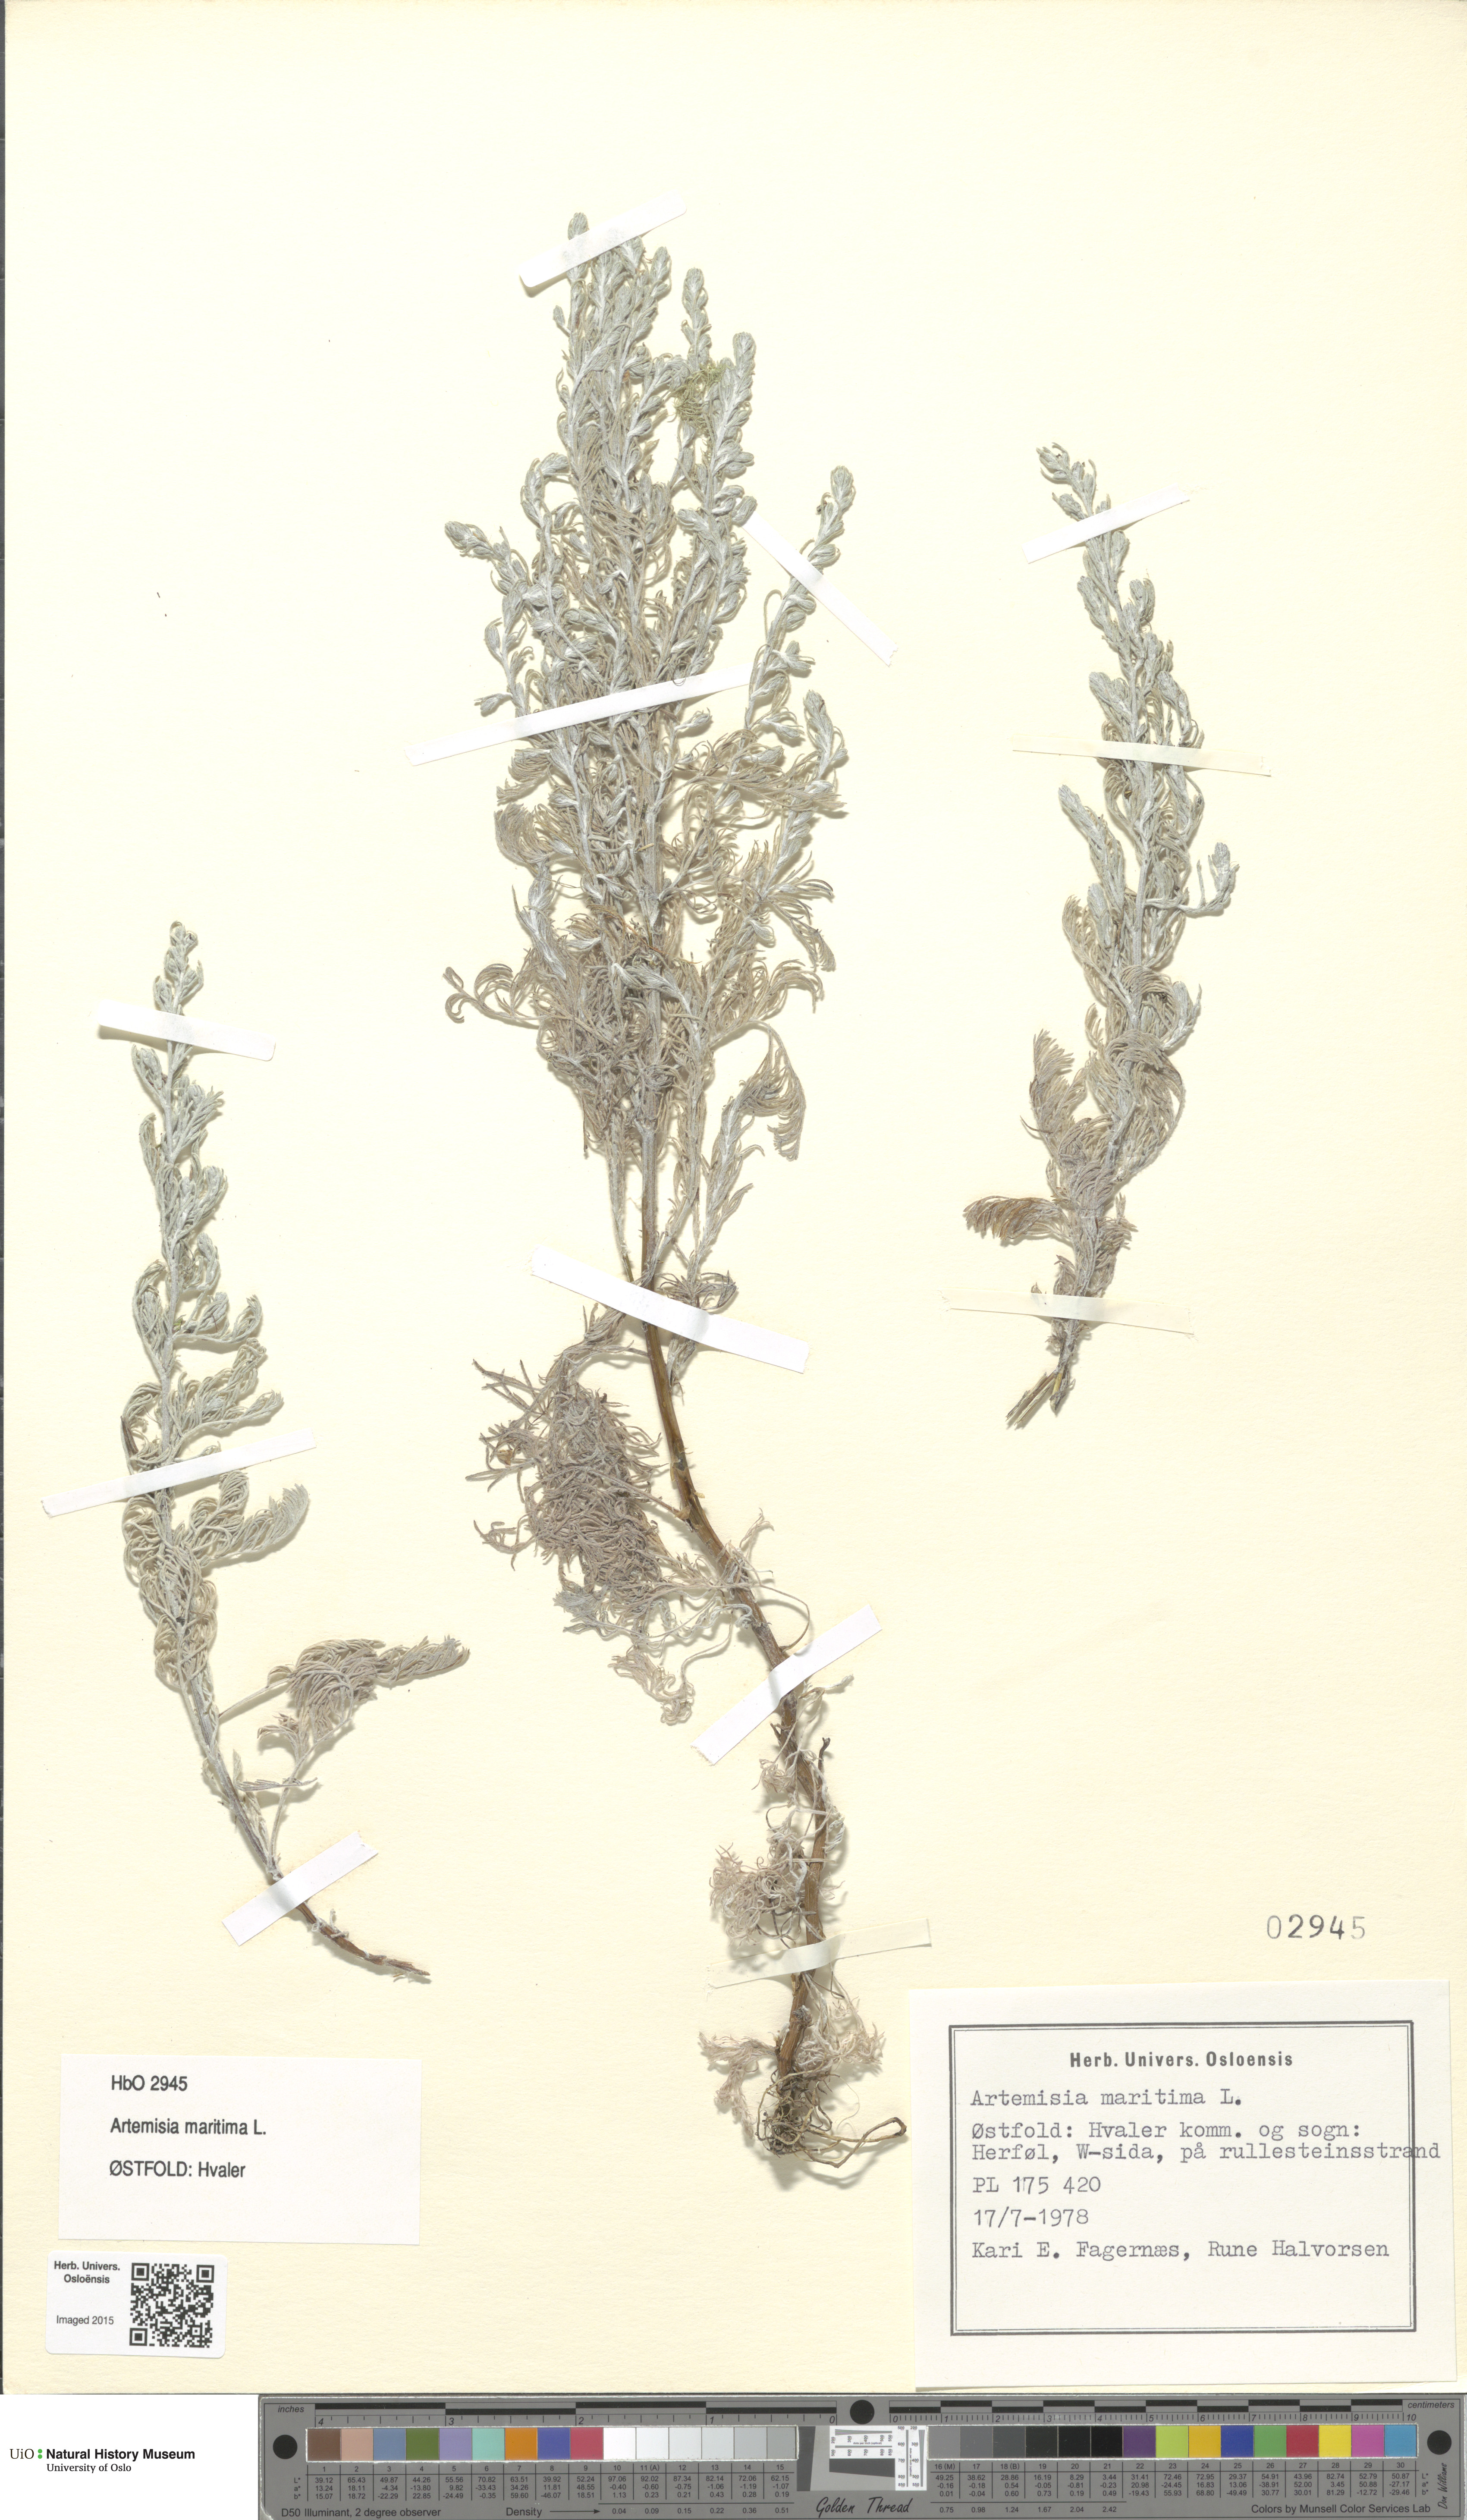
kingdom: Plantae
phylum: Tracheophyta
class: Magnoliopsida
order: Asterales
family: Asteraceae
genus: Artemisia
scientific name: Artemisia maritima
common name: Wormseed
